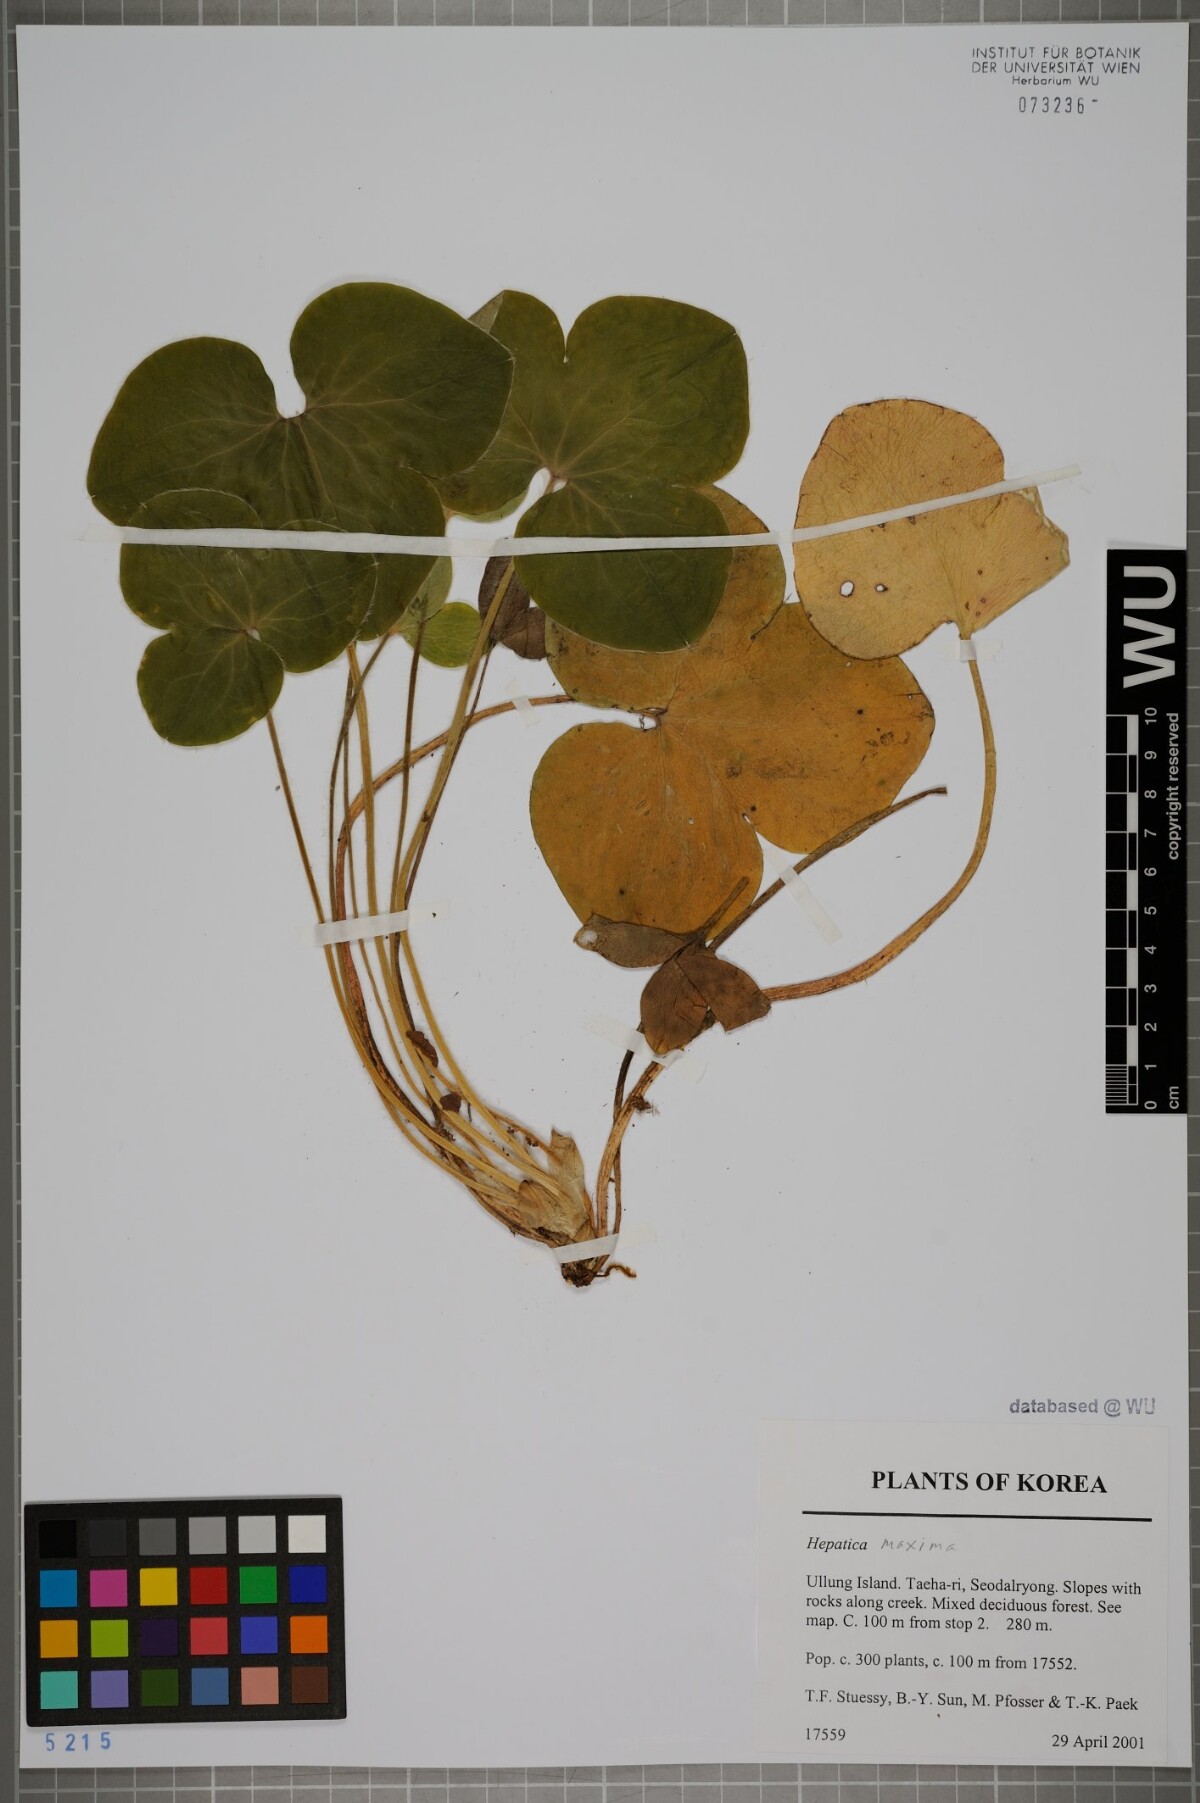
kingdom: Plantae
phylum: Tracheophyta
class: Magnoliopsida
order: Ranunculales
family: Ranunculaceae
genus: Hepatica
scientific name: Hepatica maxima
